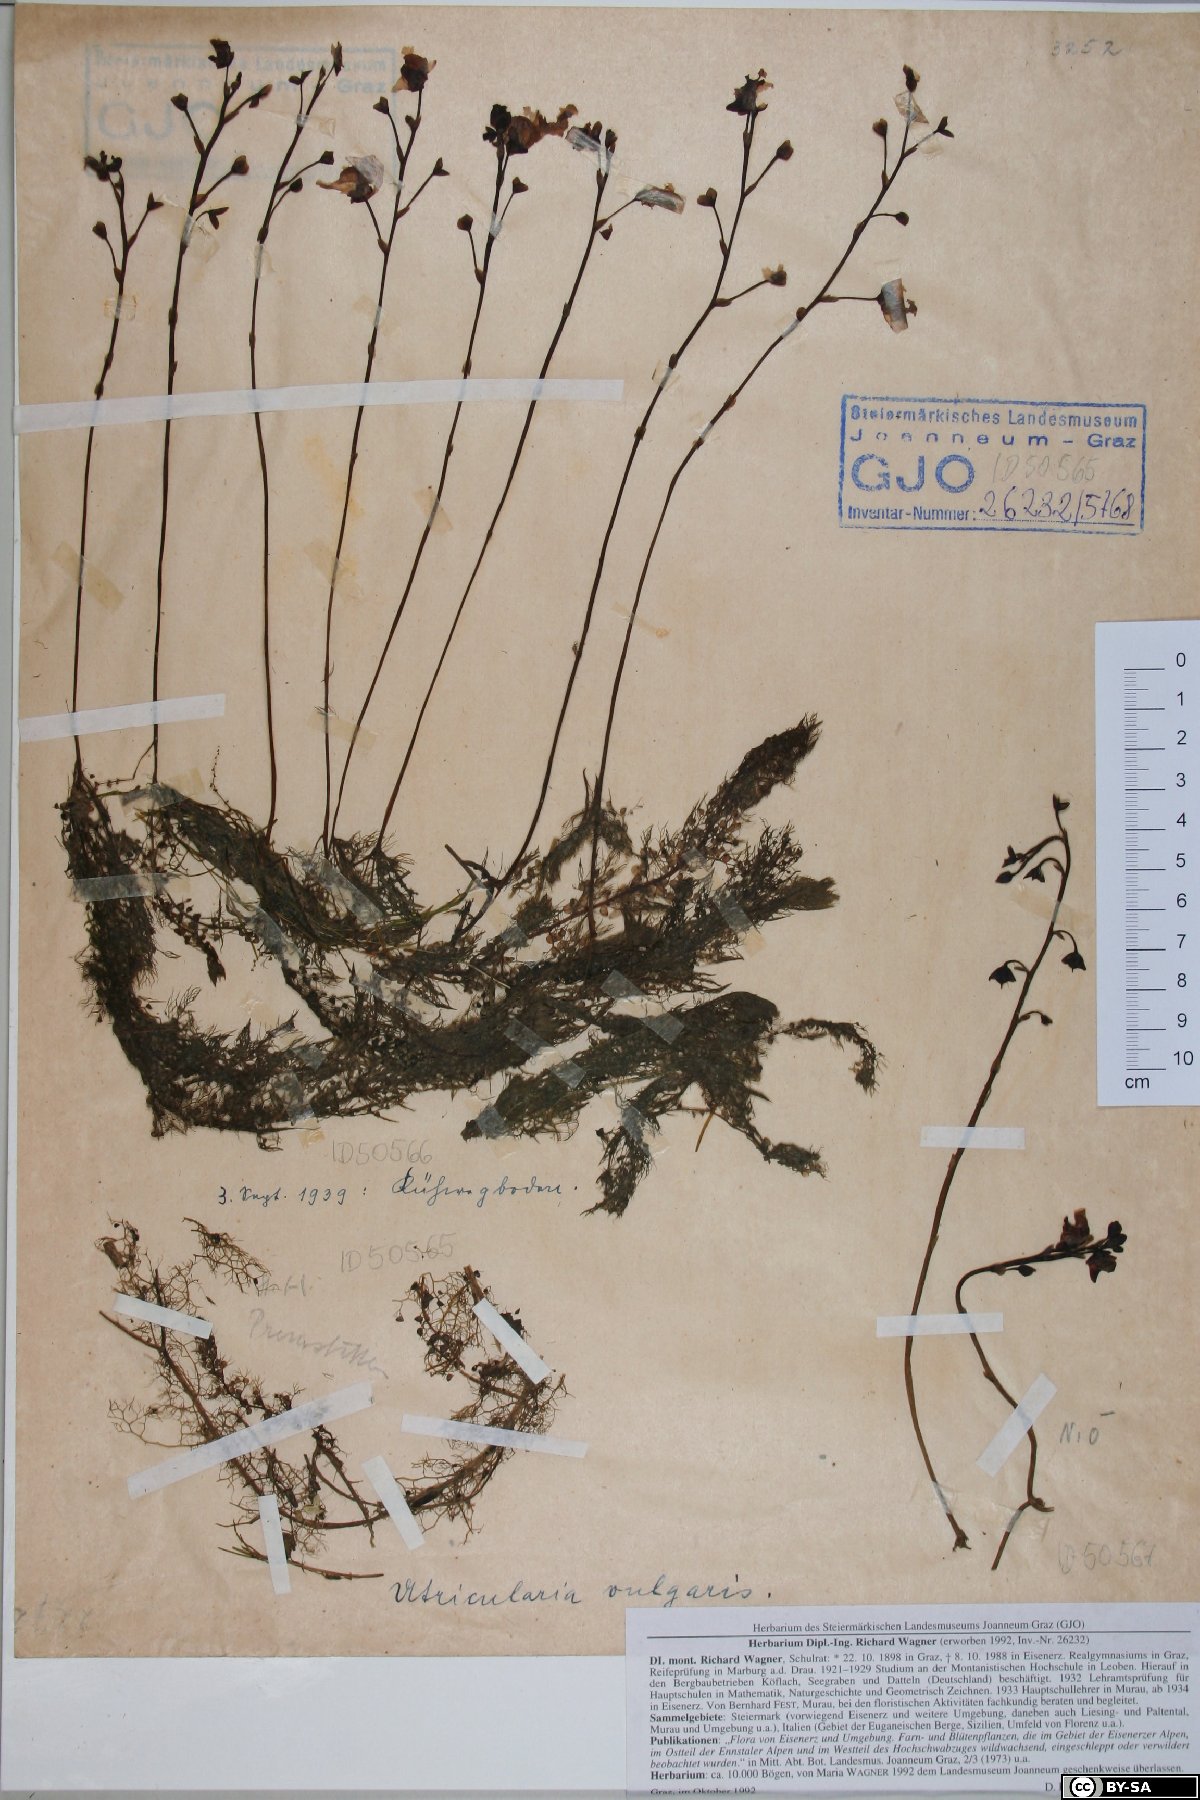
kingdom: Plantae
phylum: Tracheophyta
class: Magnoliopsida
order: Lamiales
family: Lentibulariaceae
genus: Utricularia
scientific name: Utricularia vulgaris
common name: Greater bladderwort
